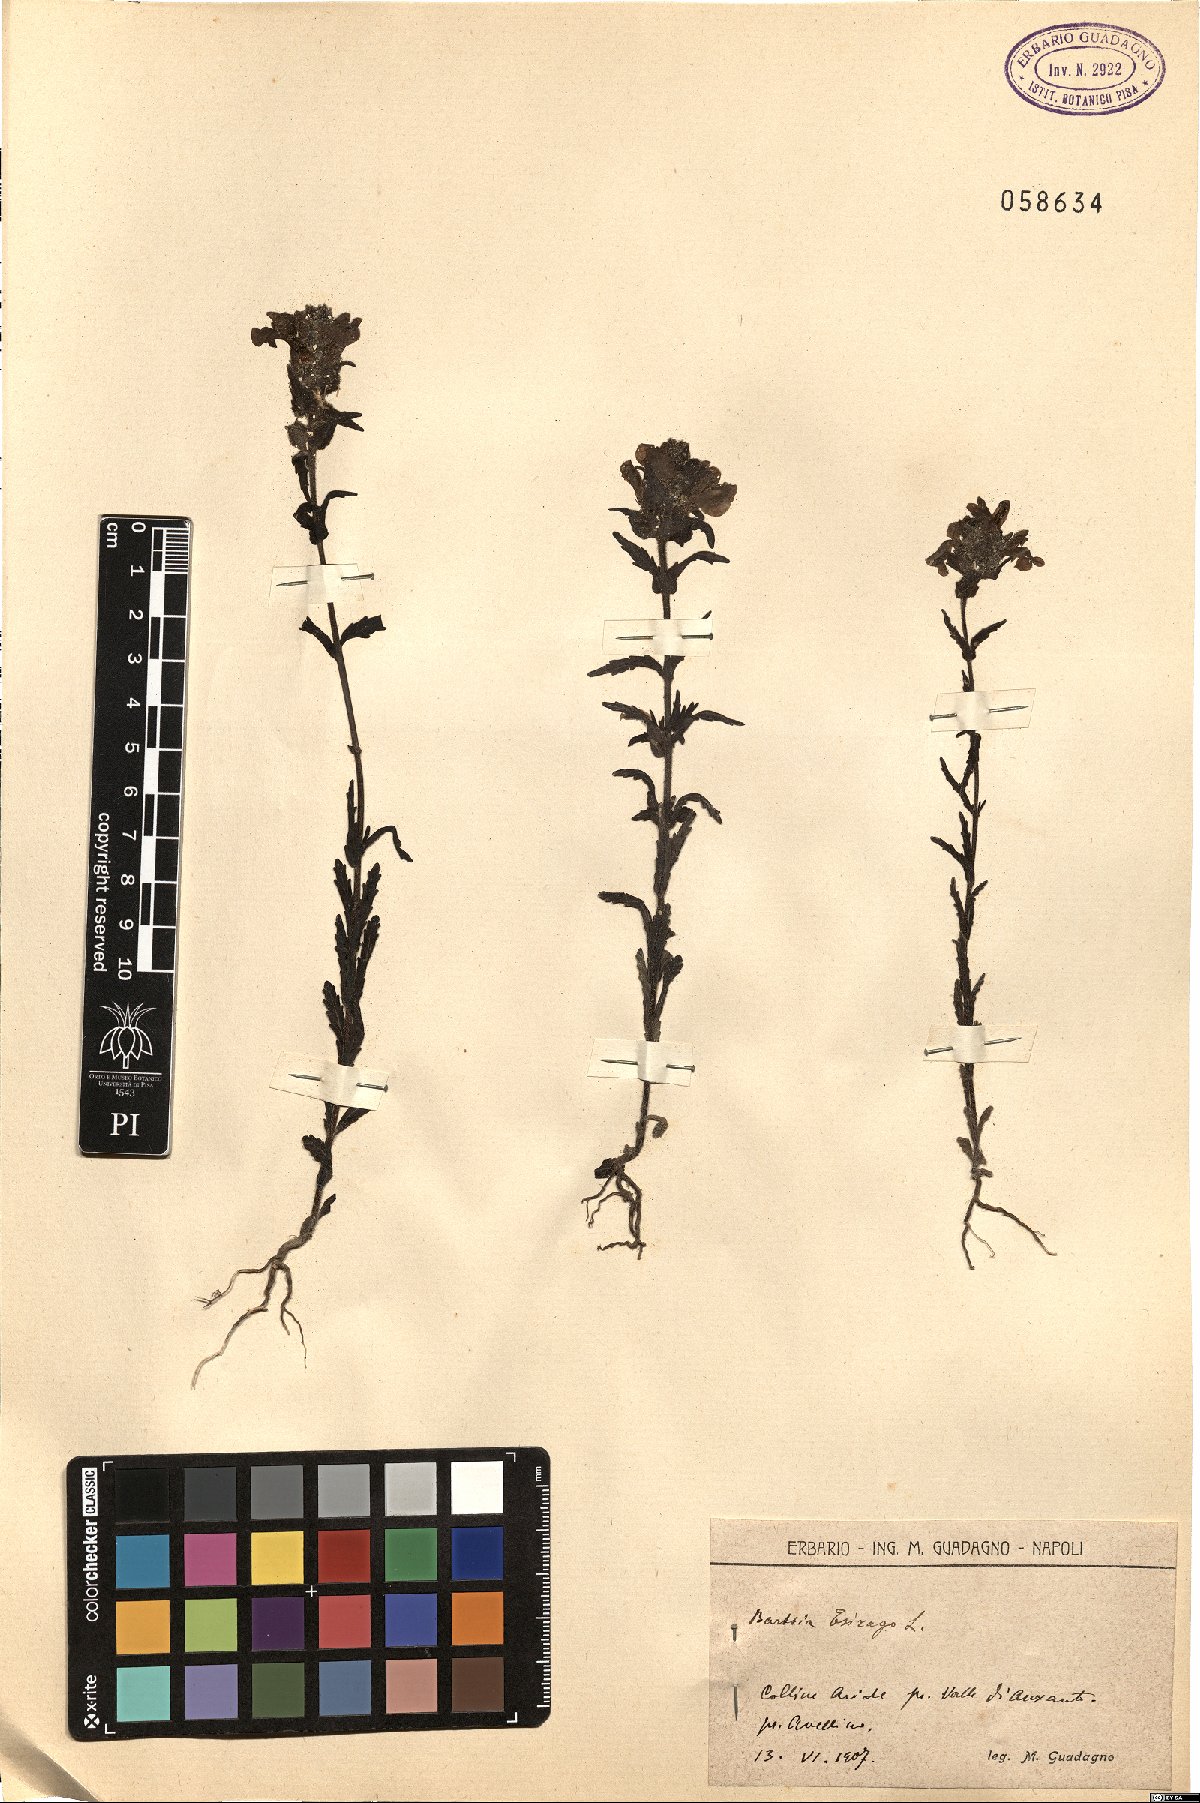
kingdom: Plantae
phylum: Tracheophyta
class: Magnoliopsida
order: Lamiales
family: Orobanchaceae
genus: Bellardia
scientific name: Bellardia trixago
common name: Mediterranean lineseed
